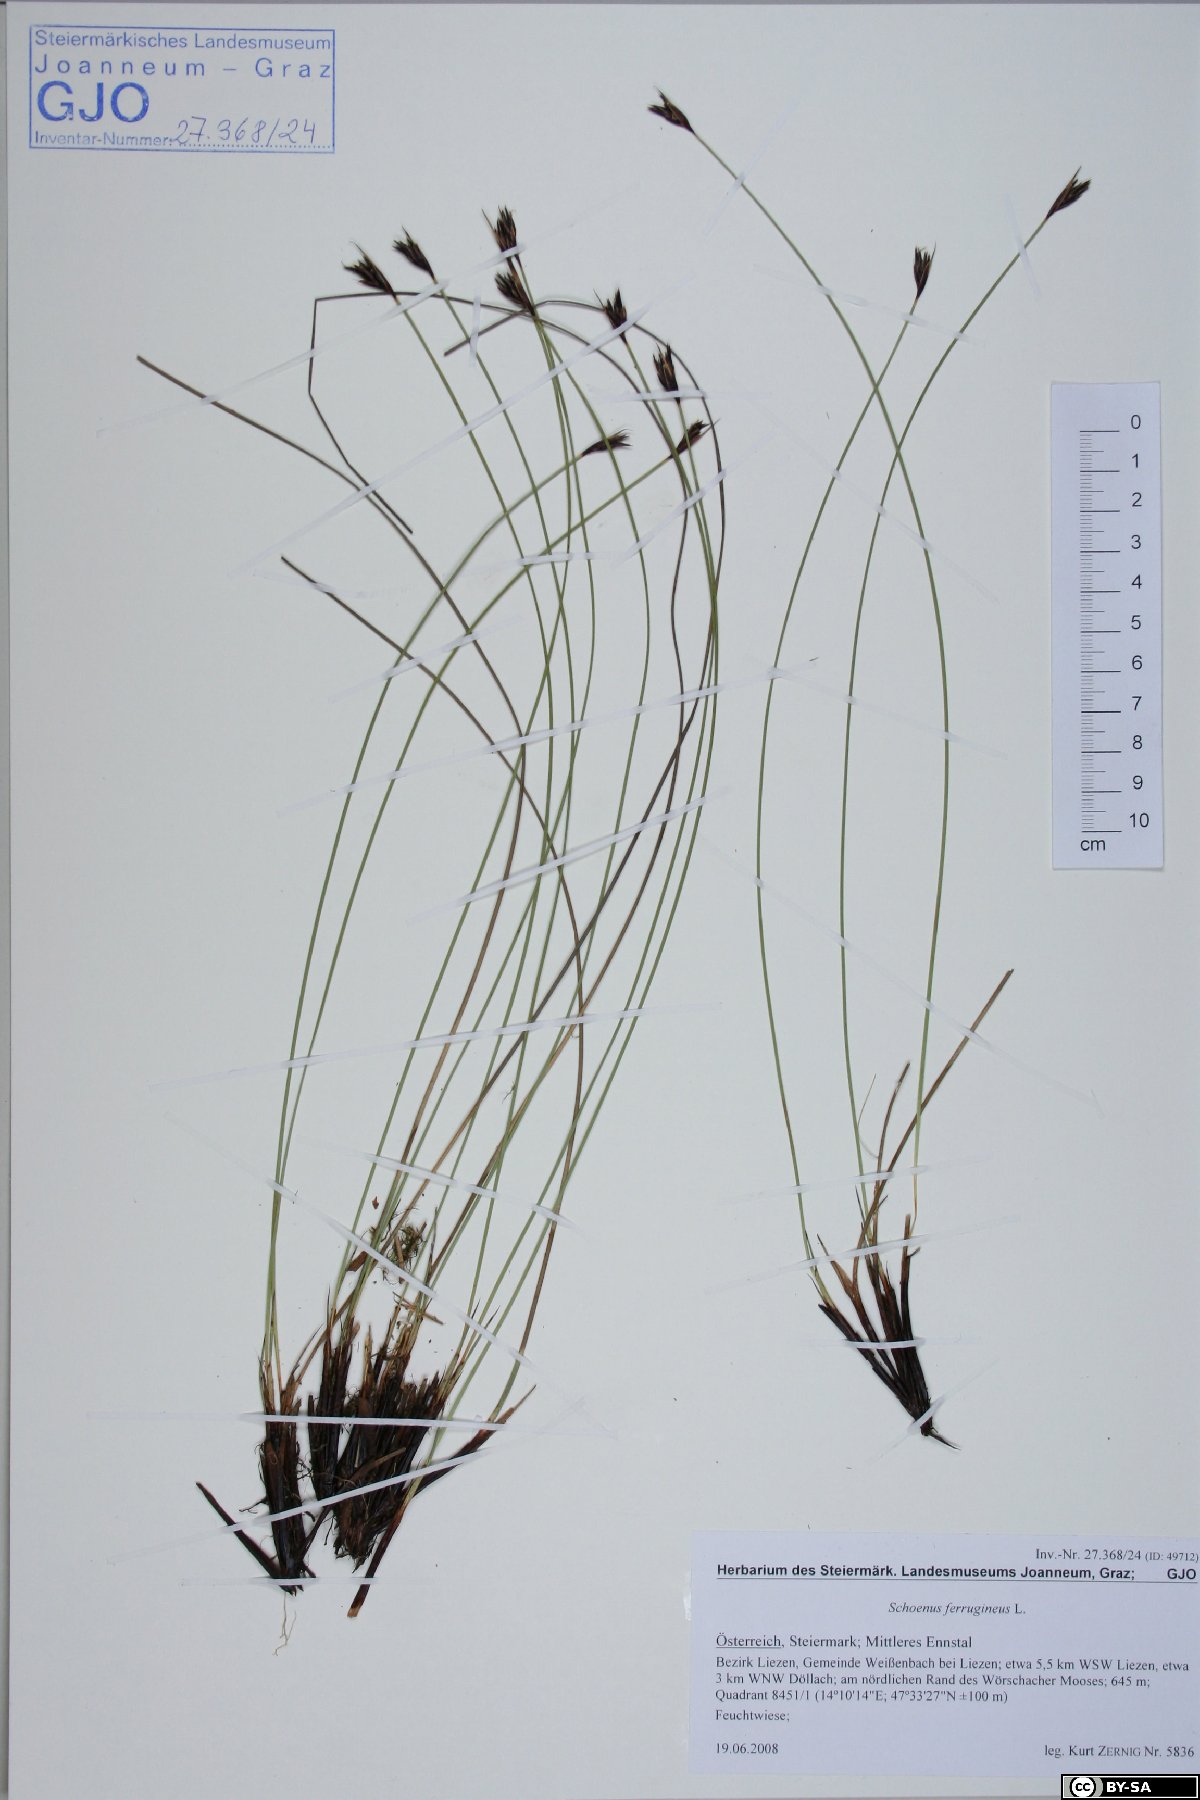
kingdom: Plantae
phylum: Tracheophyta
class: Liliopsida
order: Poales
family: Cyperaceae
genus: Schoenus
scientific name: Schoenus ferrugineus
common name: Brown bog-rush
